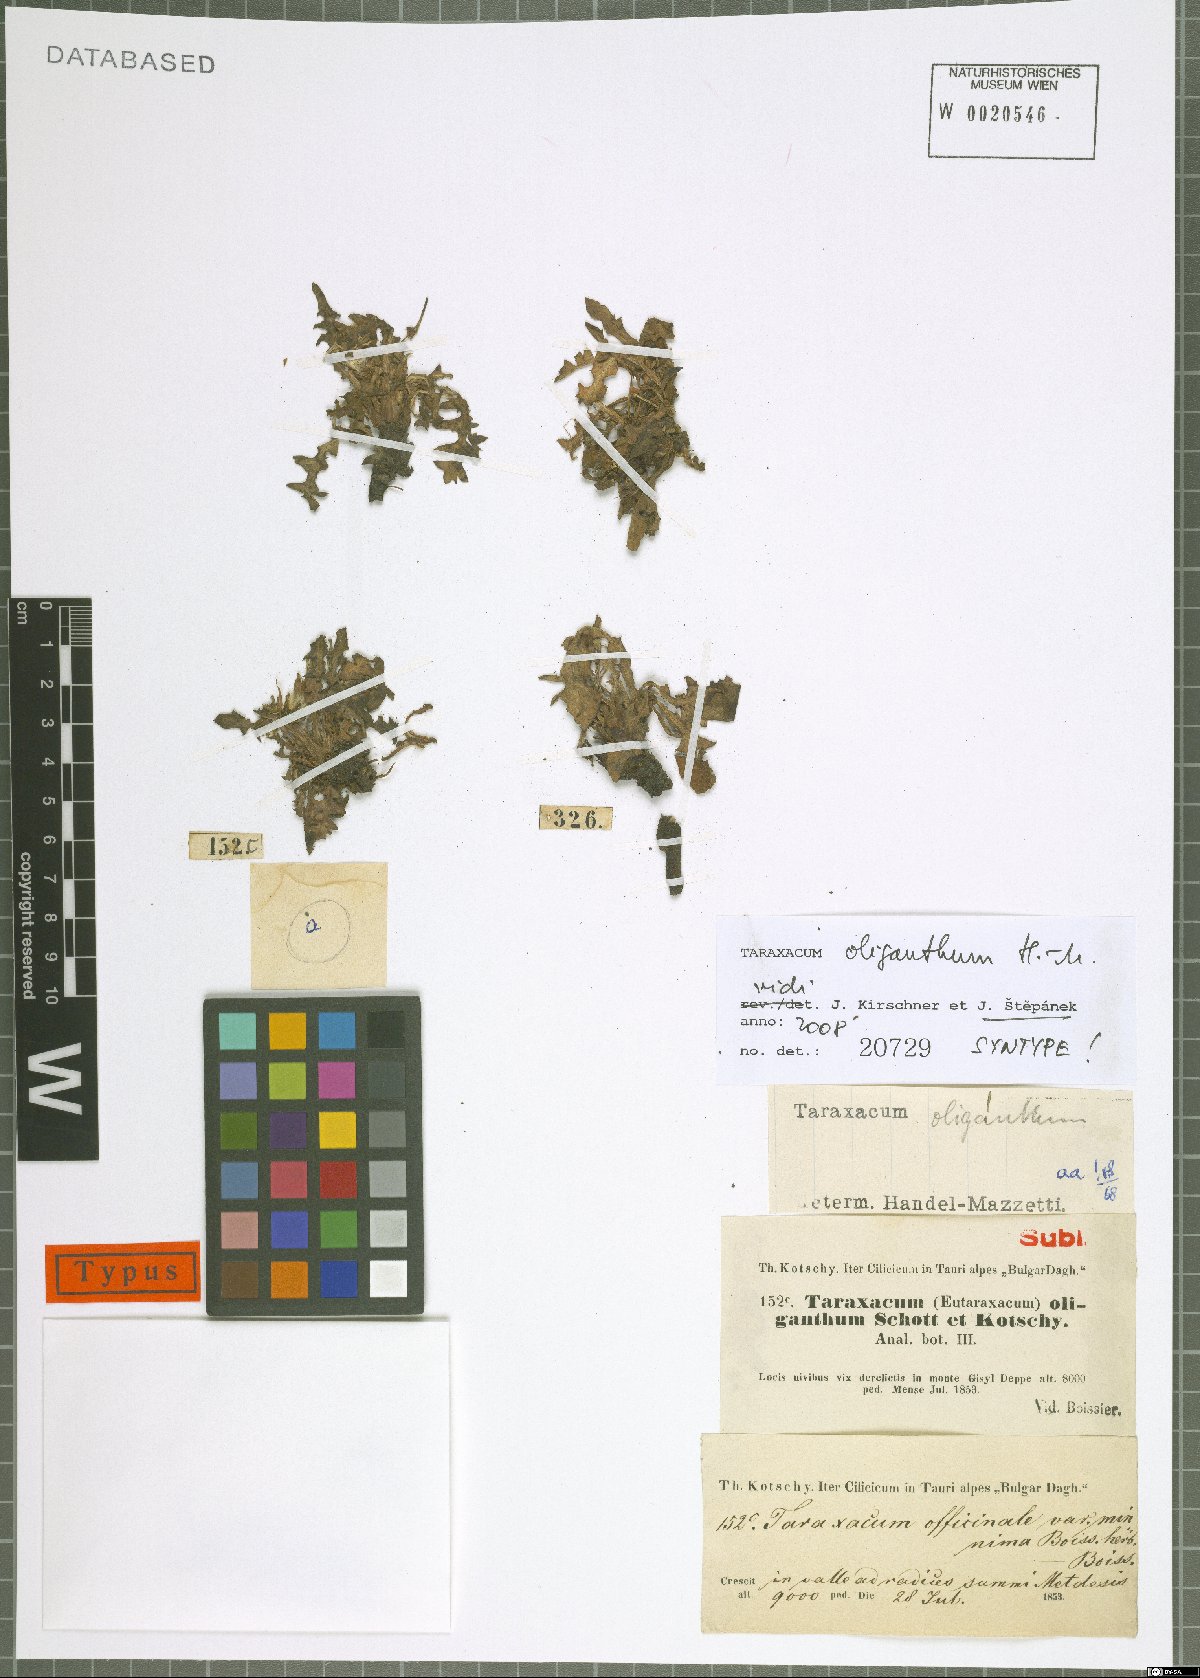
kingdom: Plantae
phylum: Tracheophyta
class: Magnoliopsida
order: Asterales
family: Asteraceae
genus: Taraxacum
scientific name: Taraxacum oliganthum
